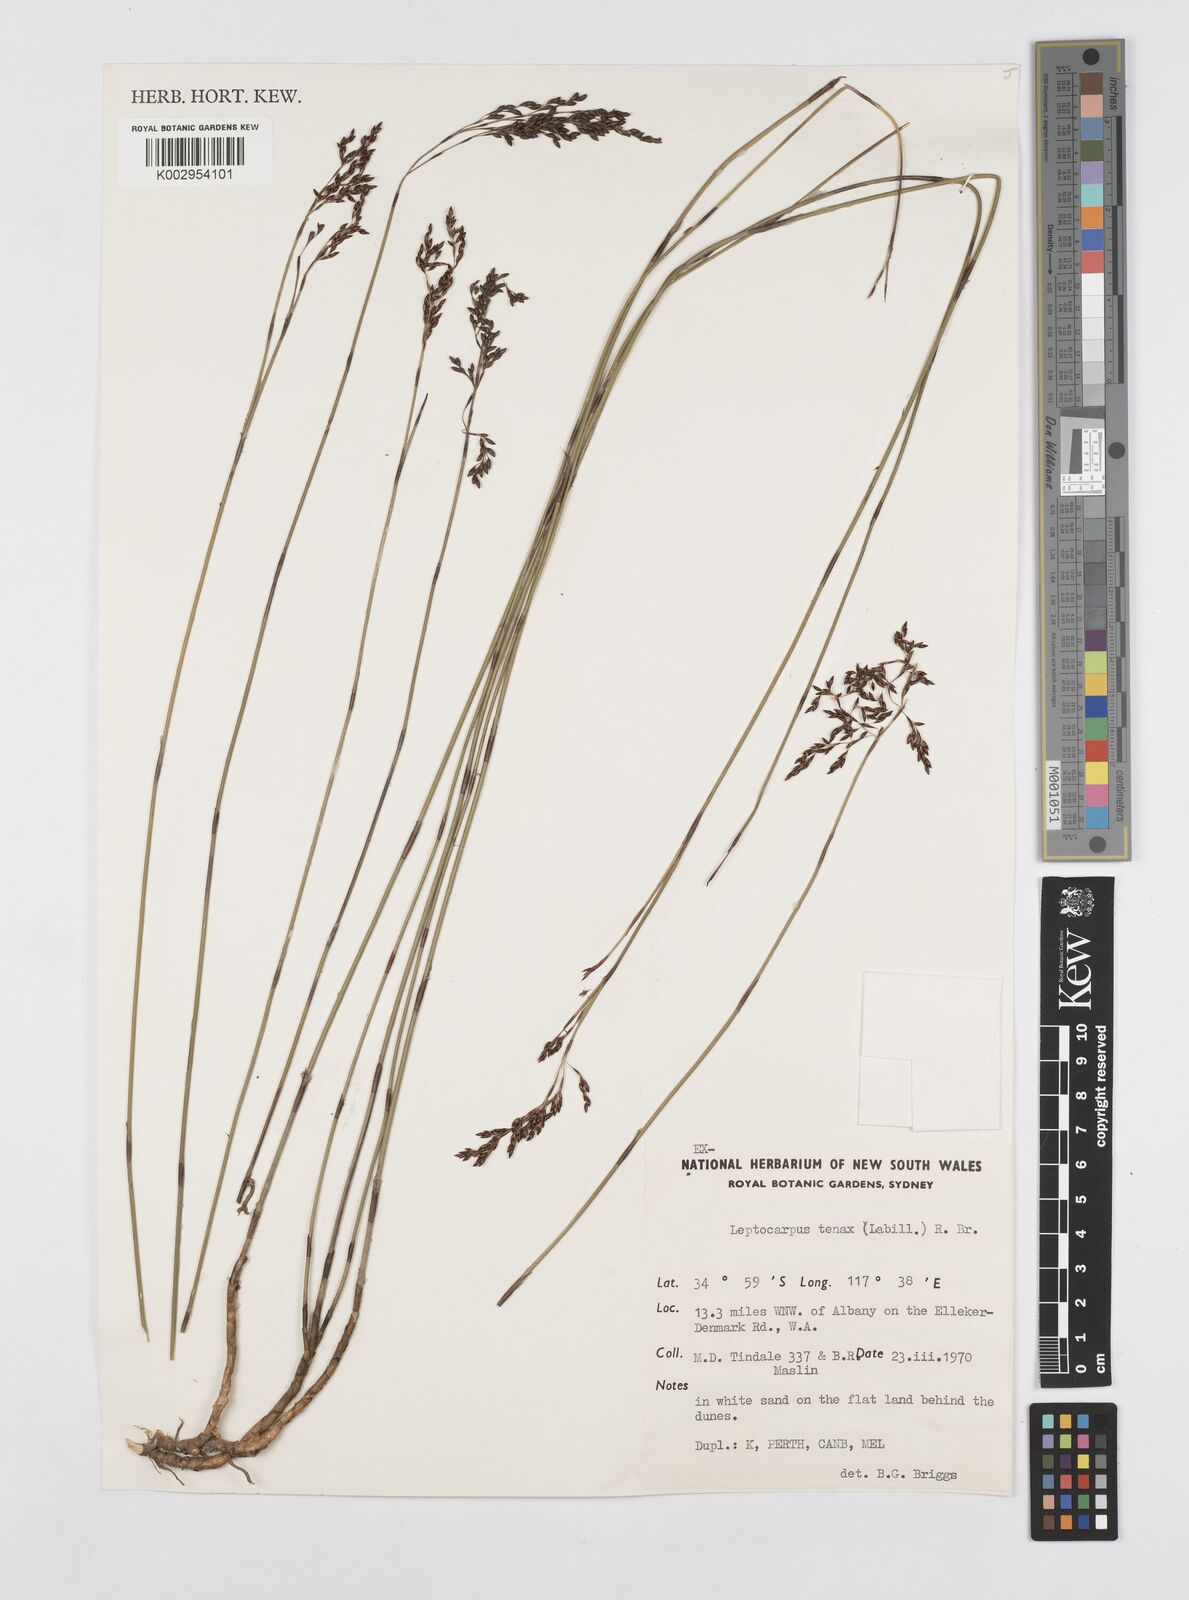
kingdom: Plantae
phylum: Tracheophyta
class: Liliopsida
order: Poales
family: Restionaceae
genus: Leptocarpus
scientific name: Leptocarpus tenax
